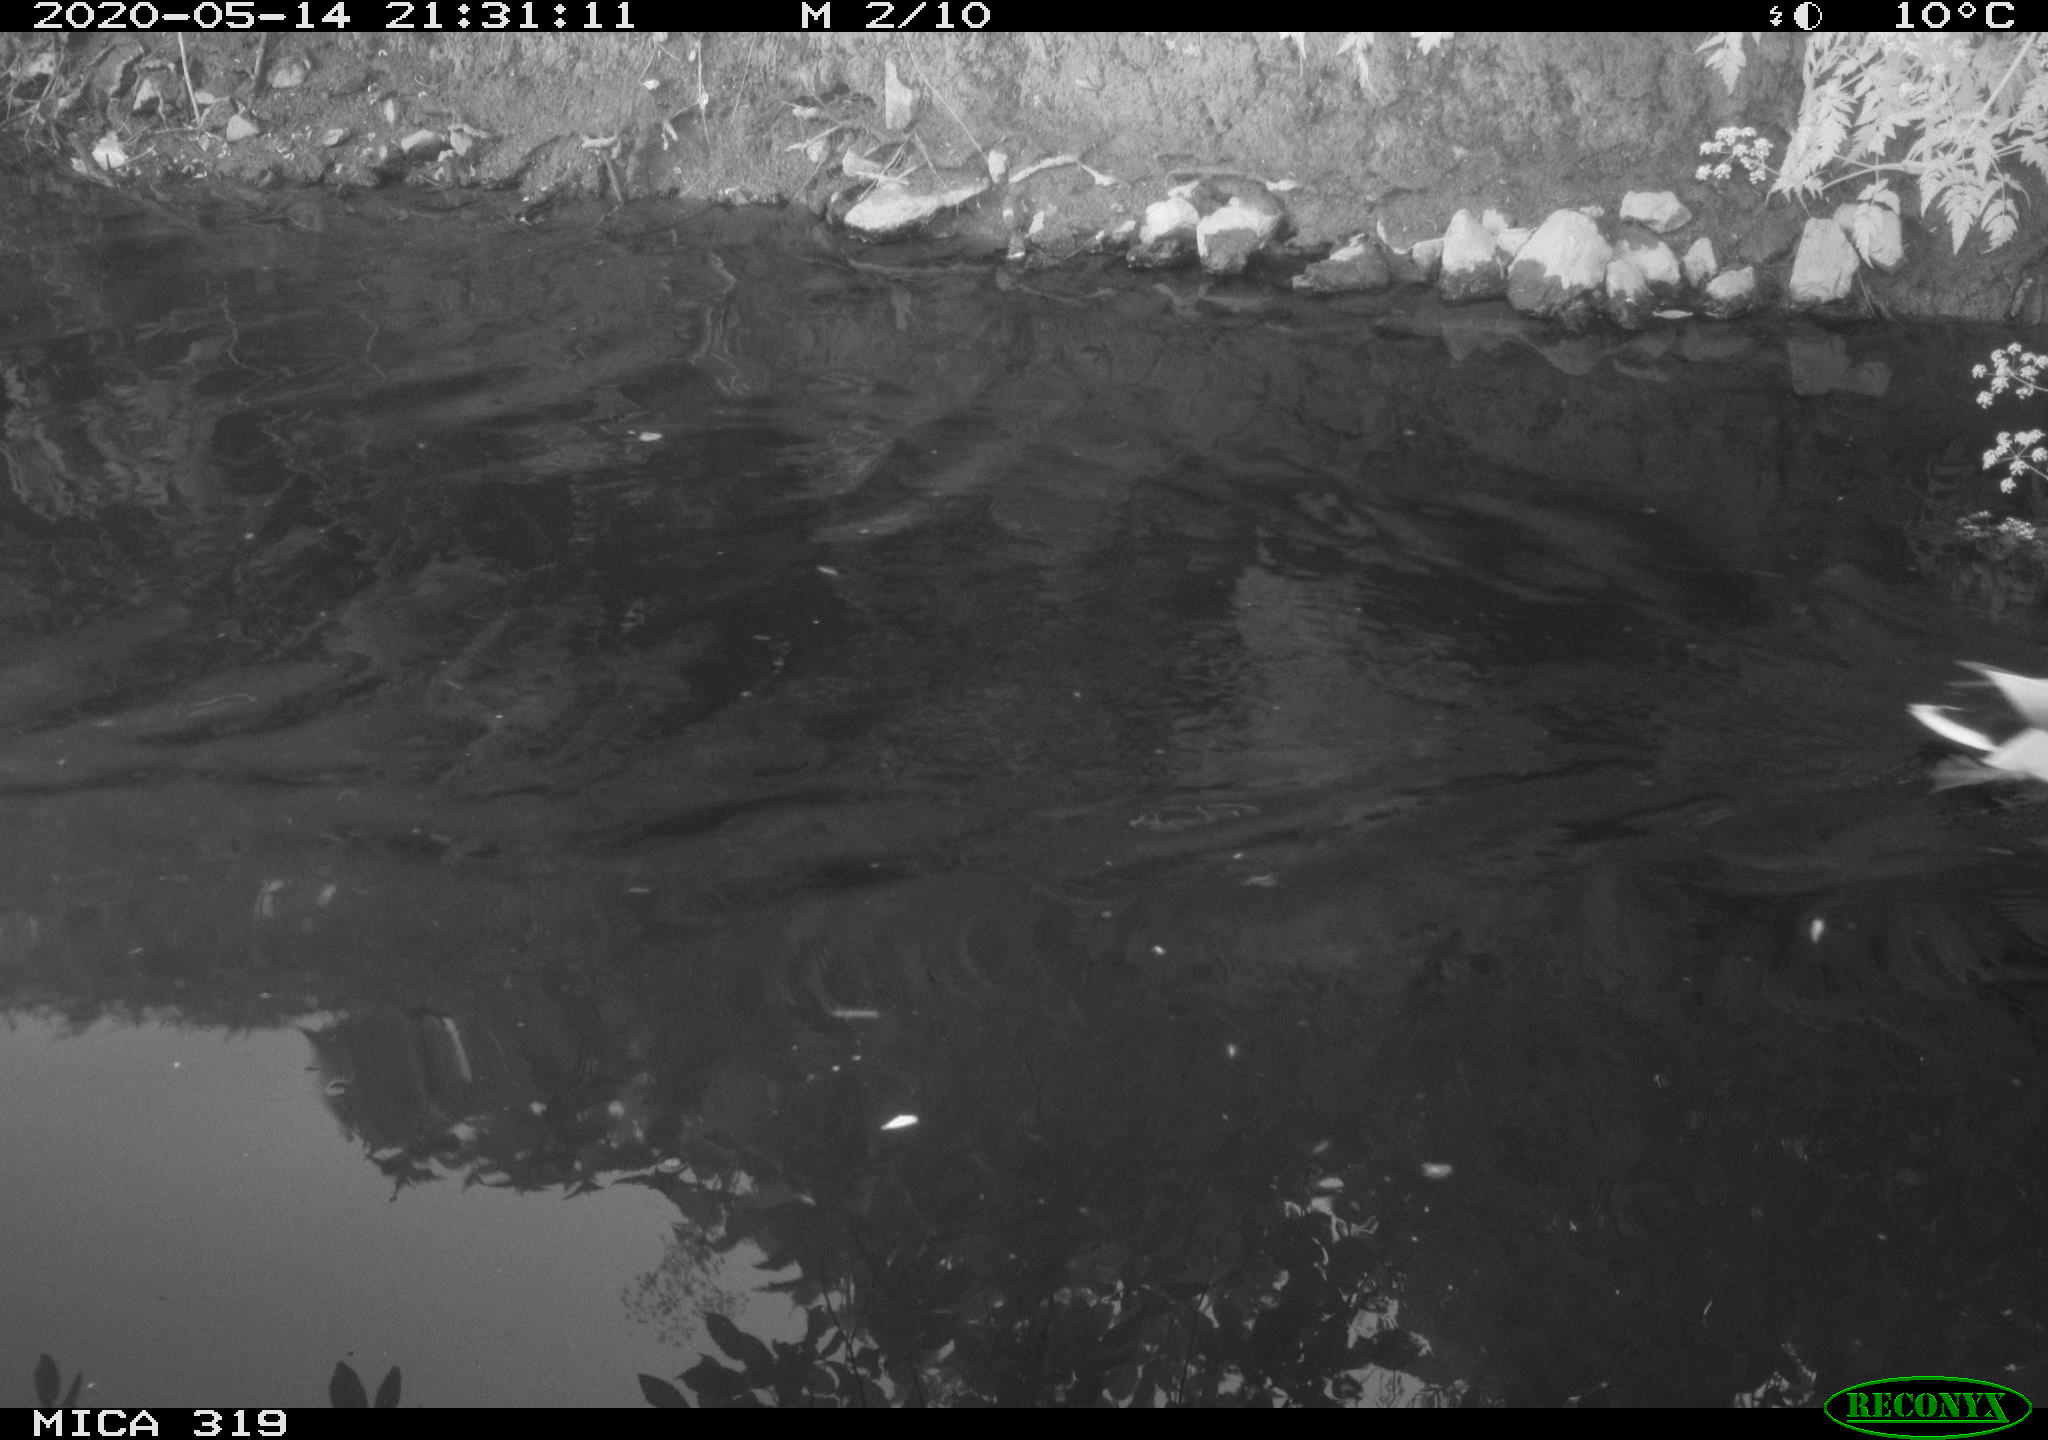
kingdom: Animalia
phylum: Chordata
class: Aves
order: Gruiformes
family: Rallidae
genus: Gallinula
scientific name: Gallinula chloropus
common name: Common moorhen
